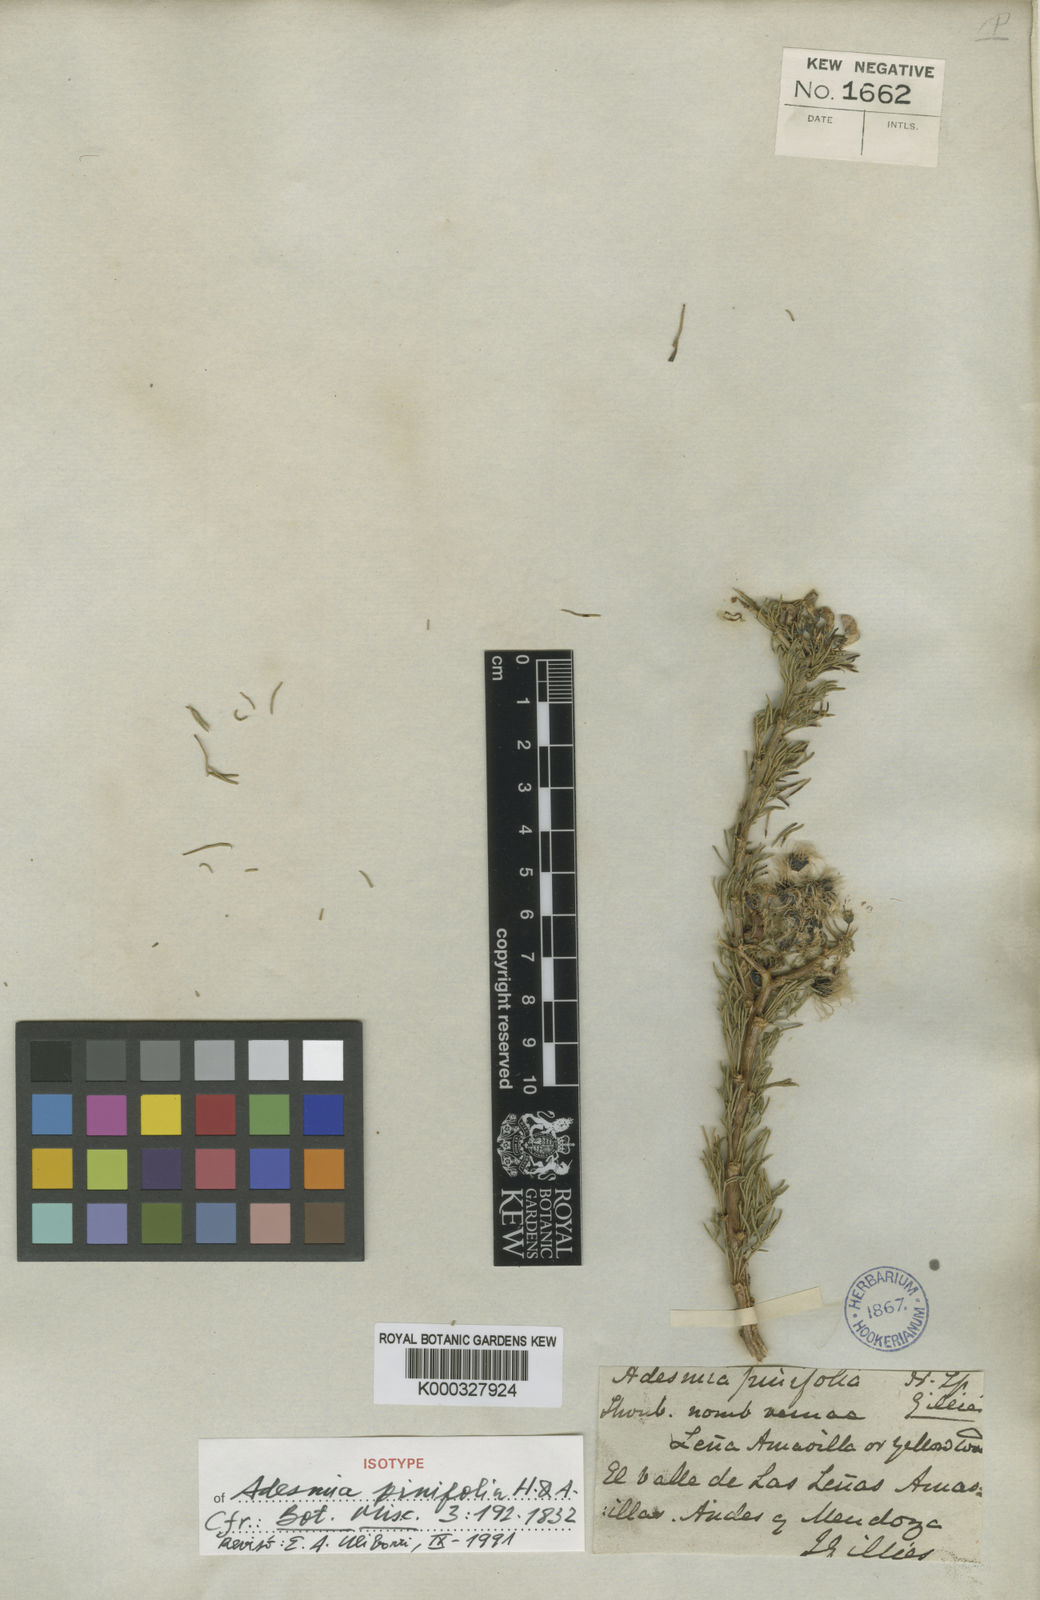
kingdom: Plantae
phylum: Tracheophyta
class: Magnoliopsida
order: Fabales
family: Fabaceae
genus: Adesmia
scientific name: Adesmia pinifolia
